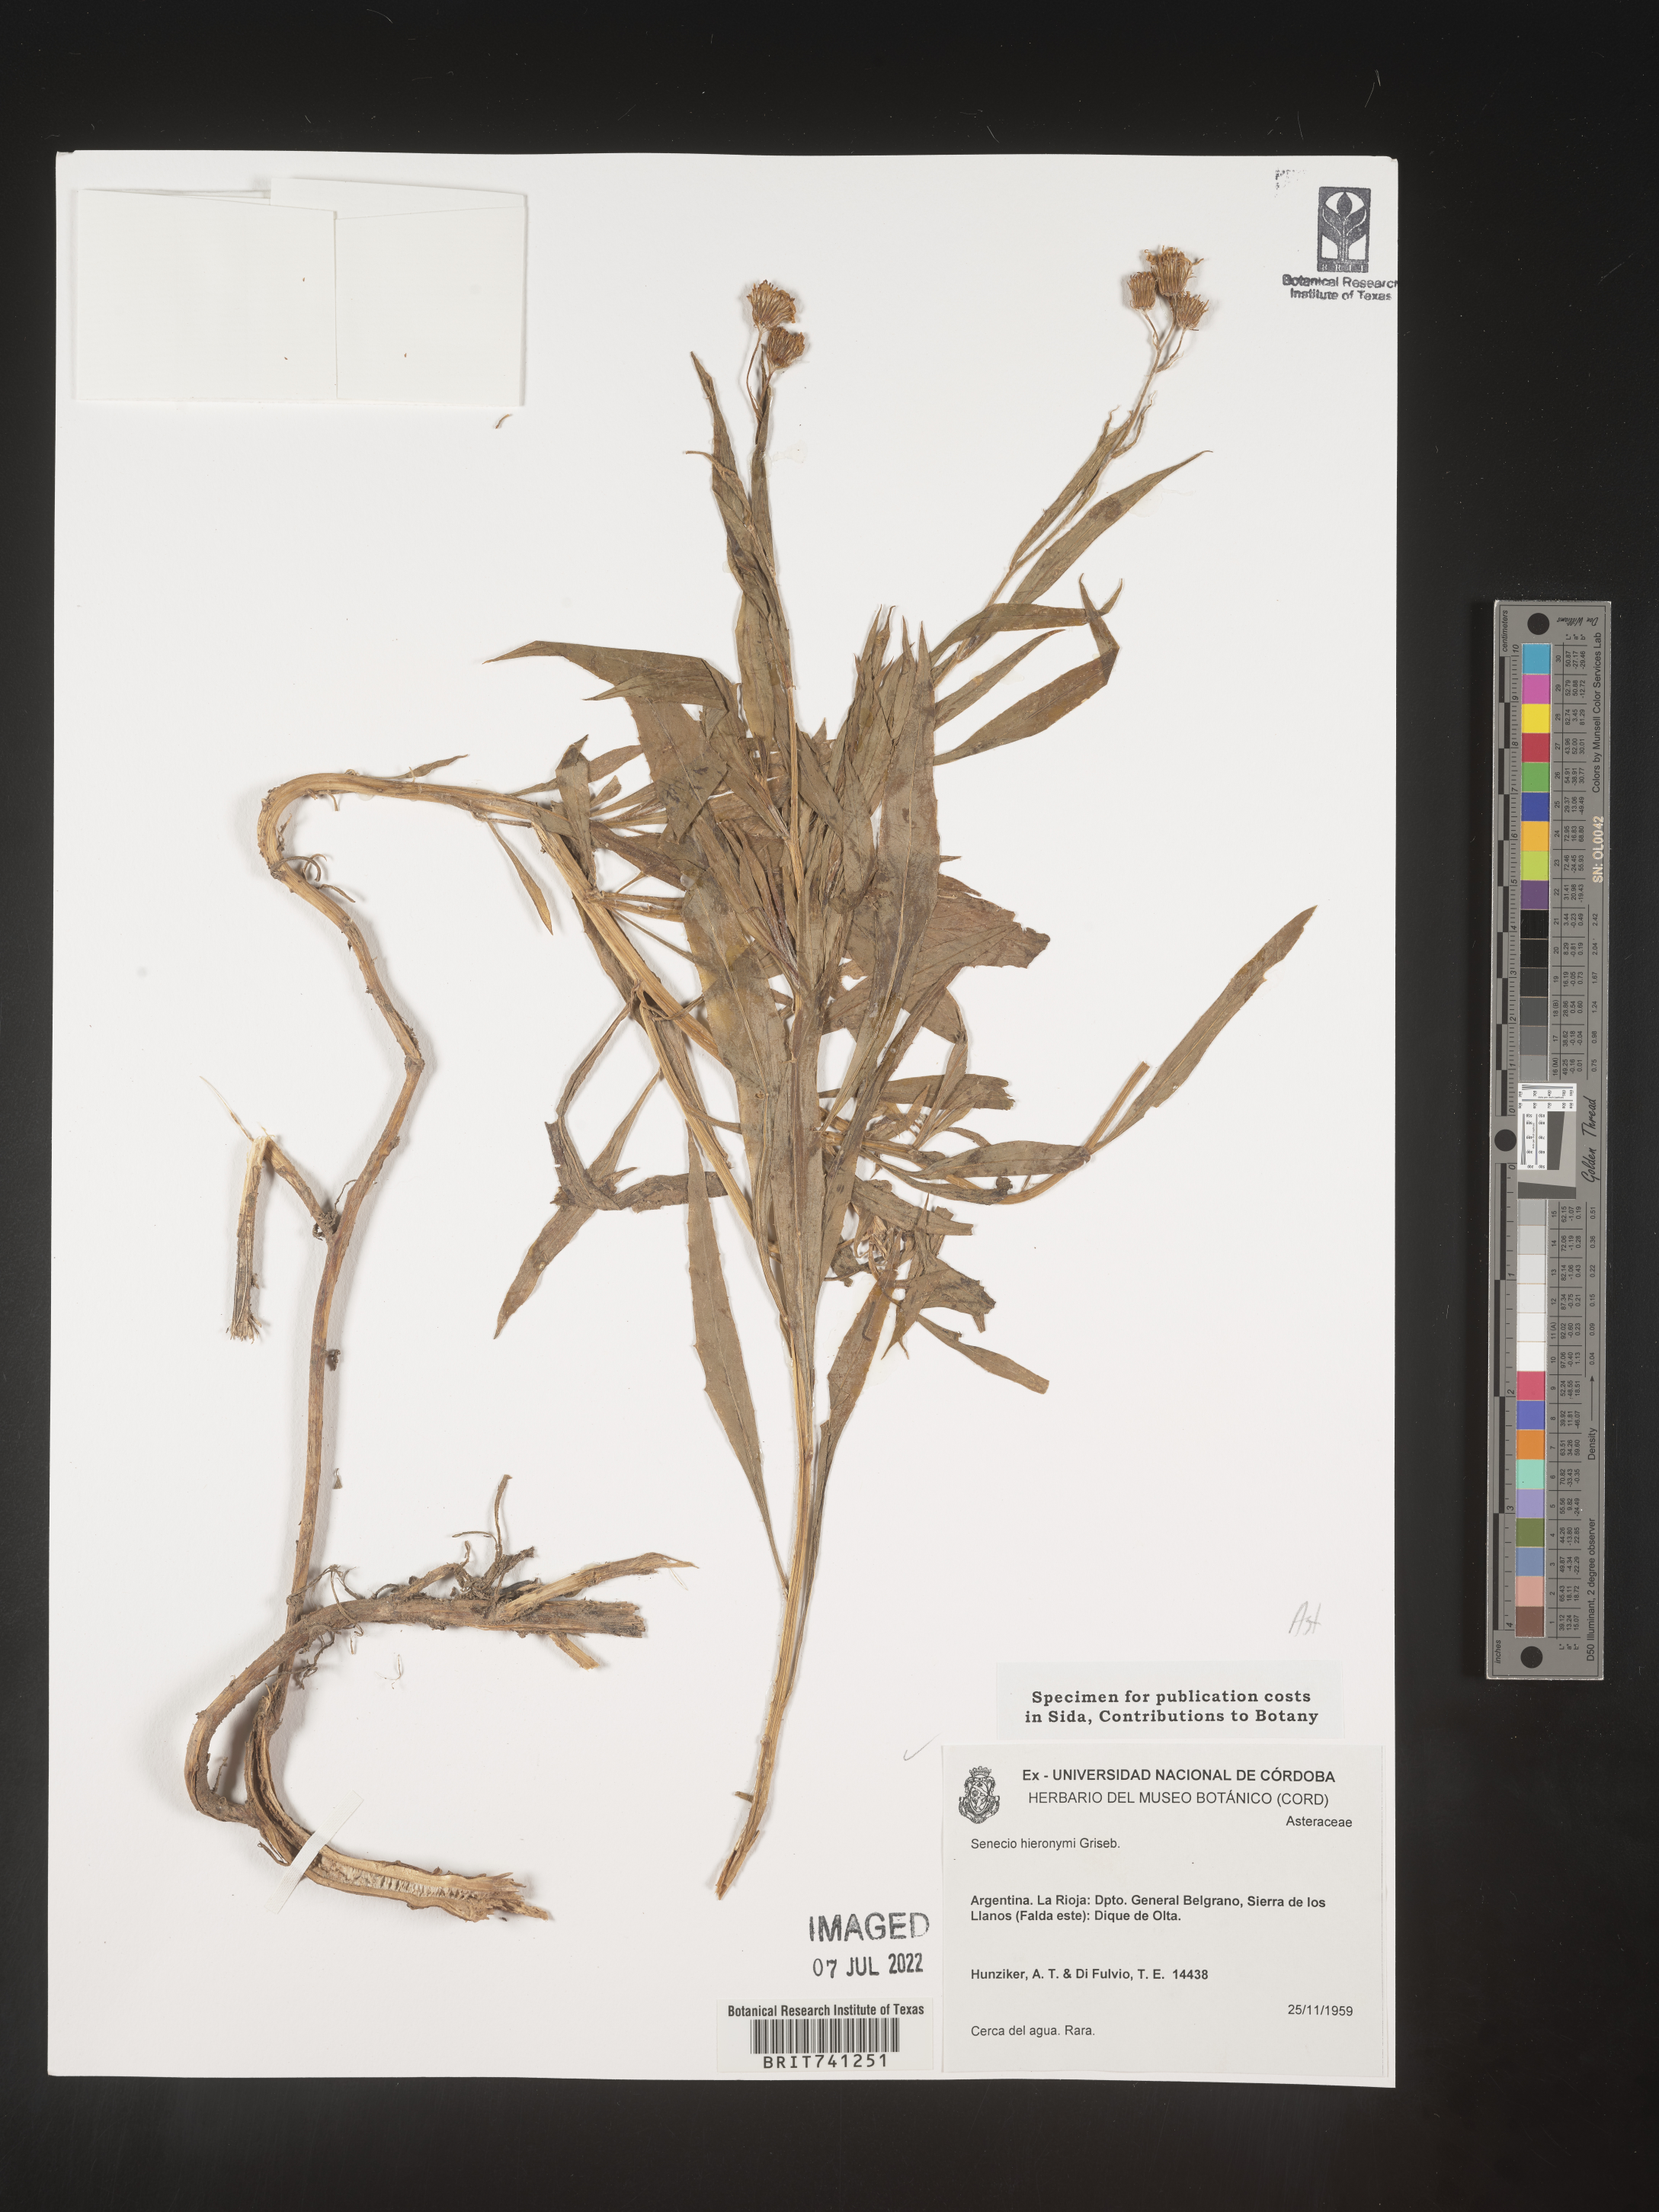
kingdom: Plantae
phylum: Tracheophyta
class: Magnoliopsida
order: Asterales
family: Asteraceae
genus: Senecio
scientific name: Senecio
